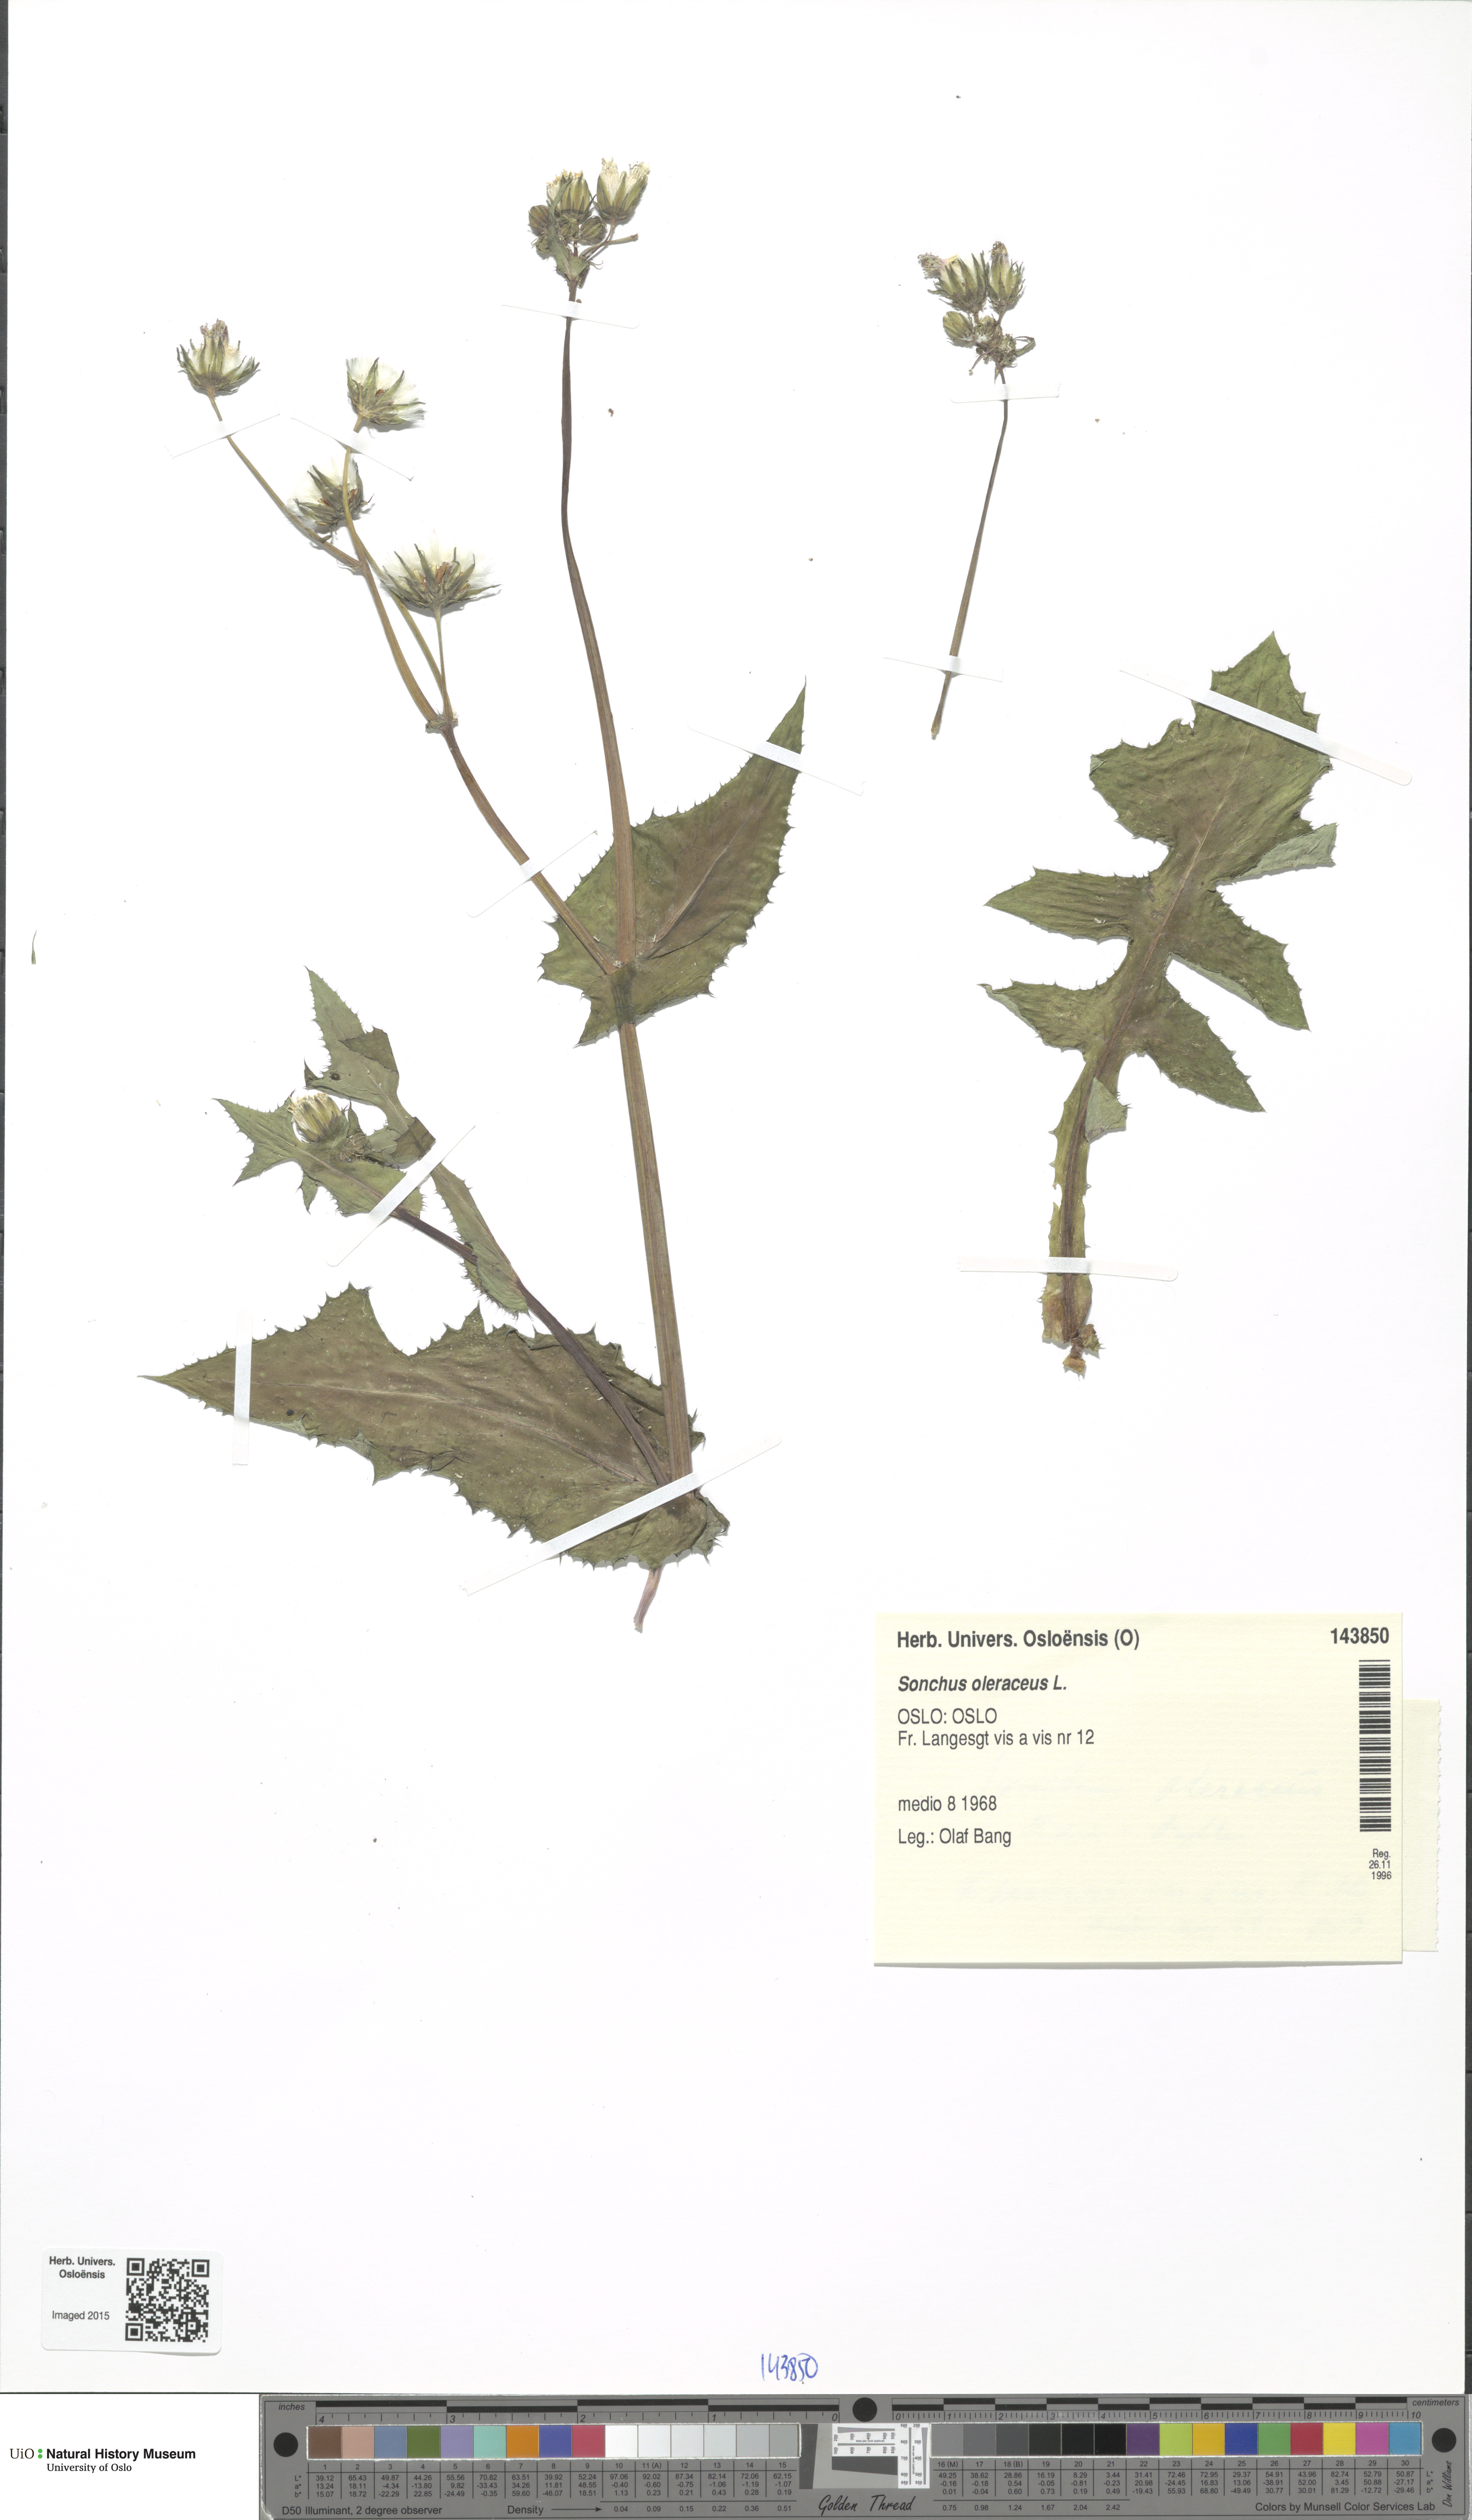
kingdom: Plantae
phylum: Tracheophyta
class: Magnoliopsida
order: Asterales
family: Asteraceae
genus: Sonchus
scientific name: Sonchus oleraceus
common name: Common sowthistle
